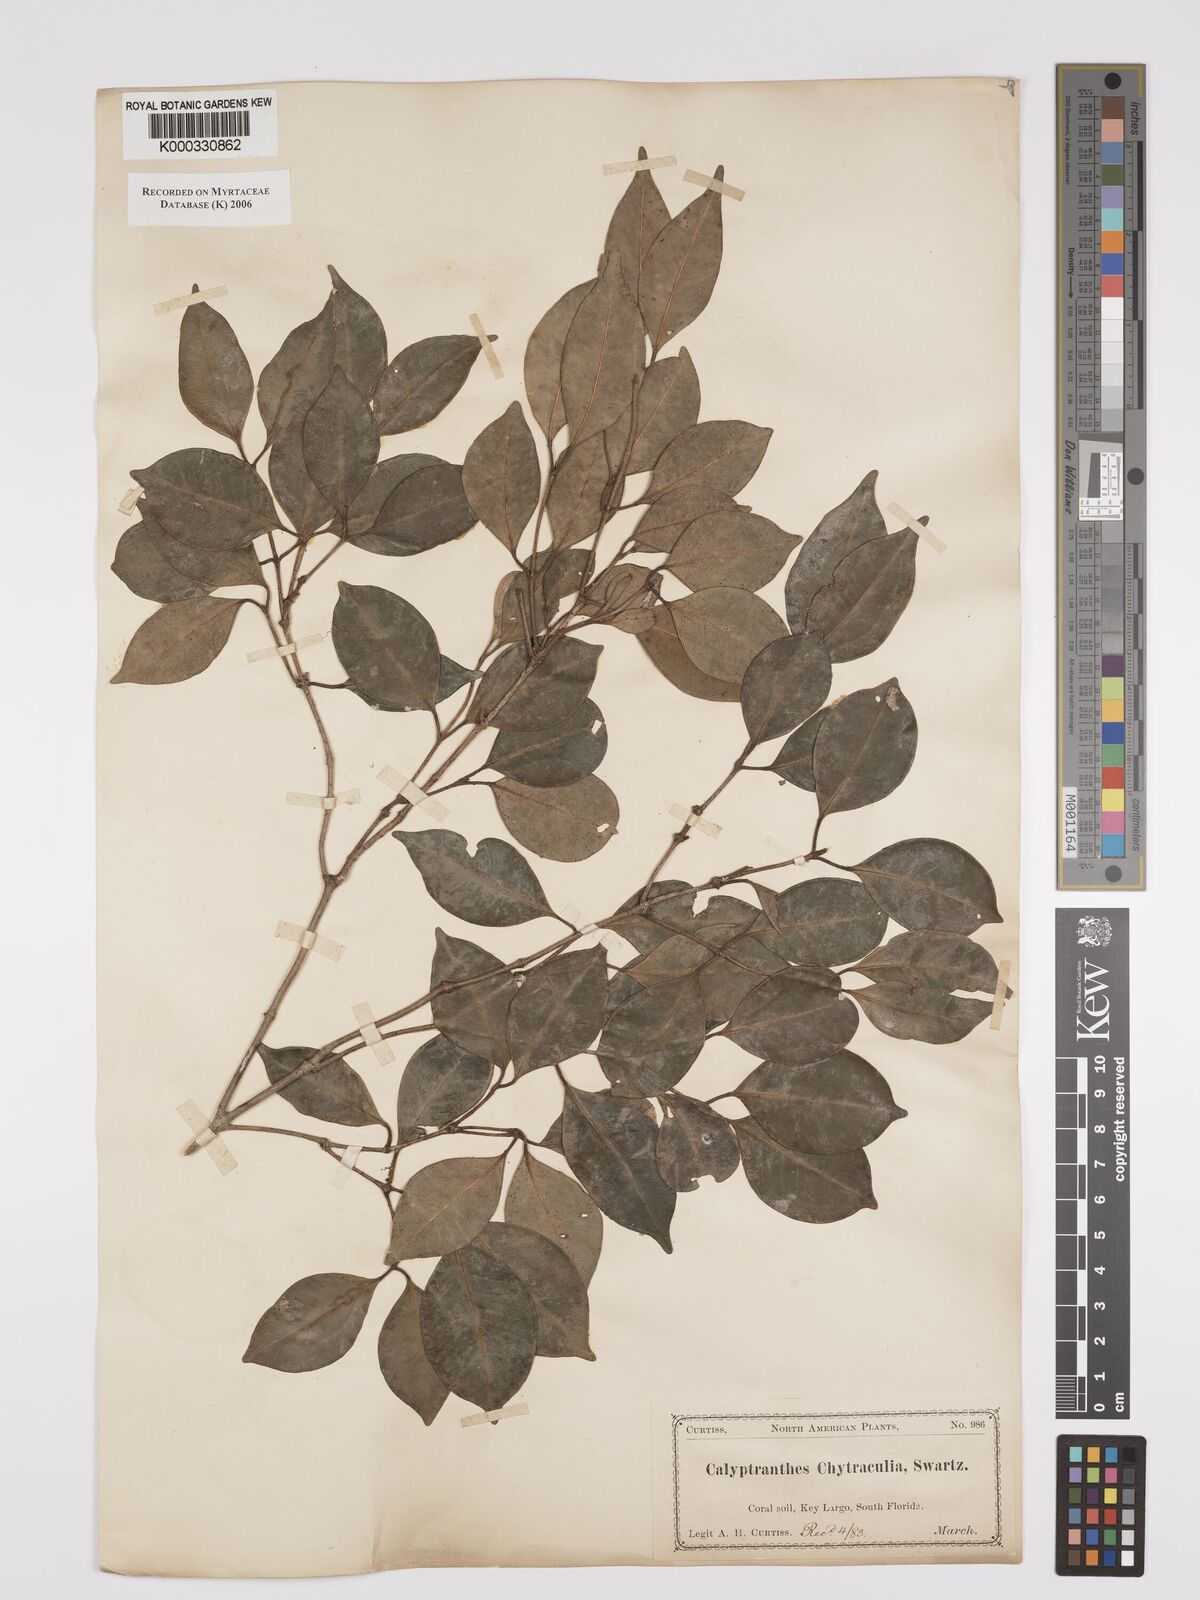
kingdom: Plantae
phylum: Tracheophyta
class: Magnoliopsida
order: Myrtales
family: Myrtaceae
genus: Myrcia
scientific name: Myrcia chytraculia
